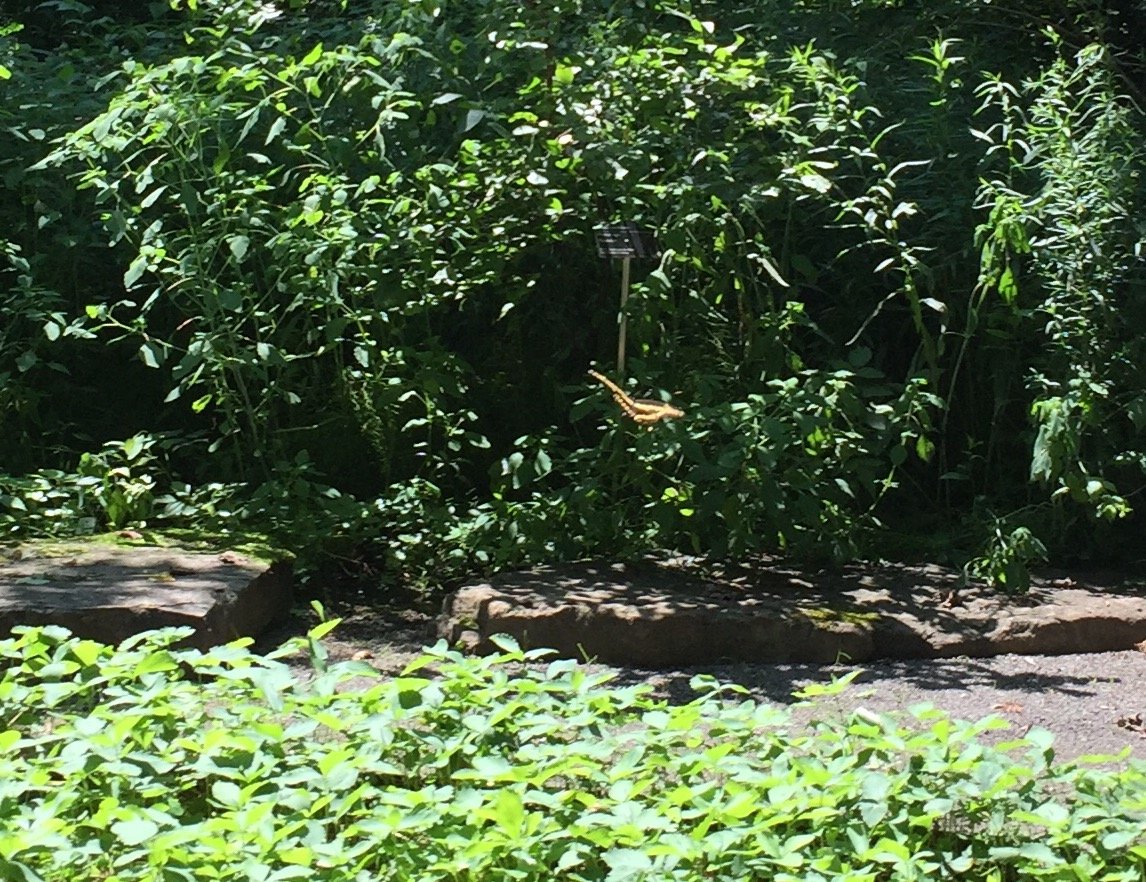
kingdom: Animalia
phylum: Arthropoda
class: Insecta
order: Lepidoptera
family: Papilionidae
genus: Papilio
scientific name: Papilio cresphontes
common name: Eastern Giant Swallowtail
